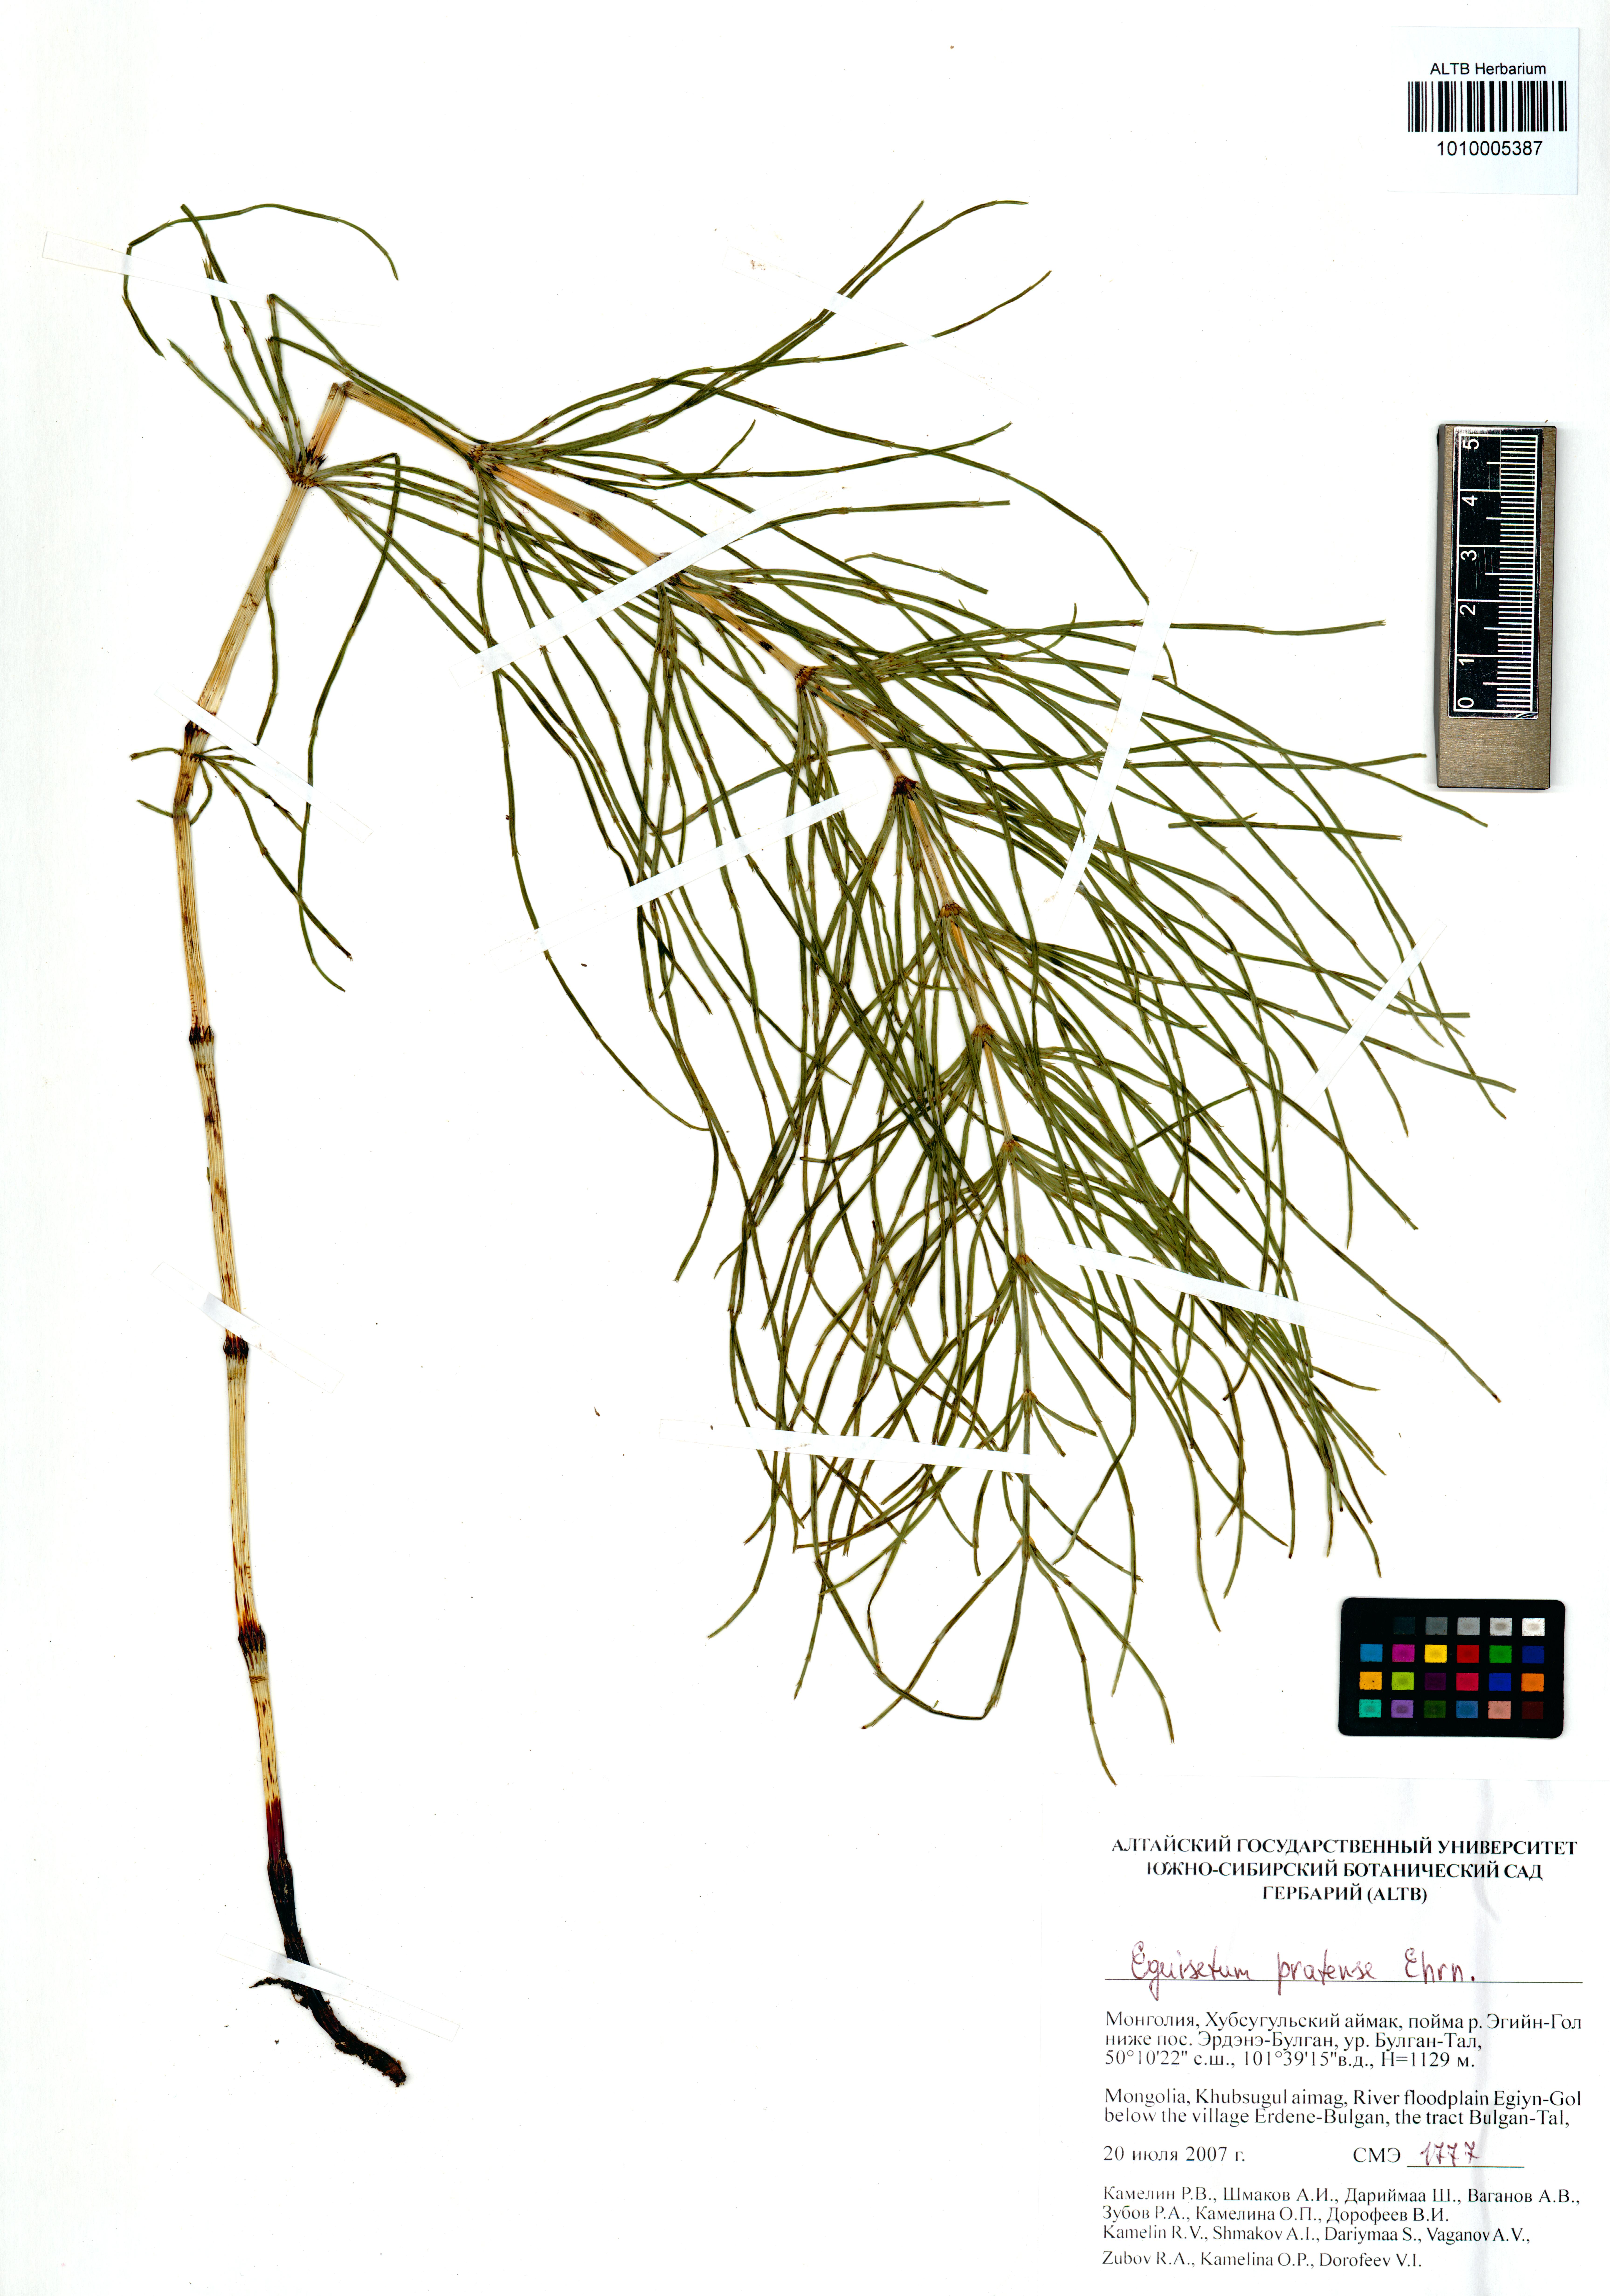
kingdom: Plantae
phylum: Tracheophyta
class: Polypodiopsida
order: Equisetales
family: Equisetaceae
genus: Equisetum
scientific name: Equisetum pratense
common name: Meadow horsetail
